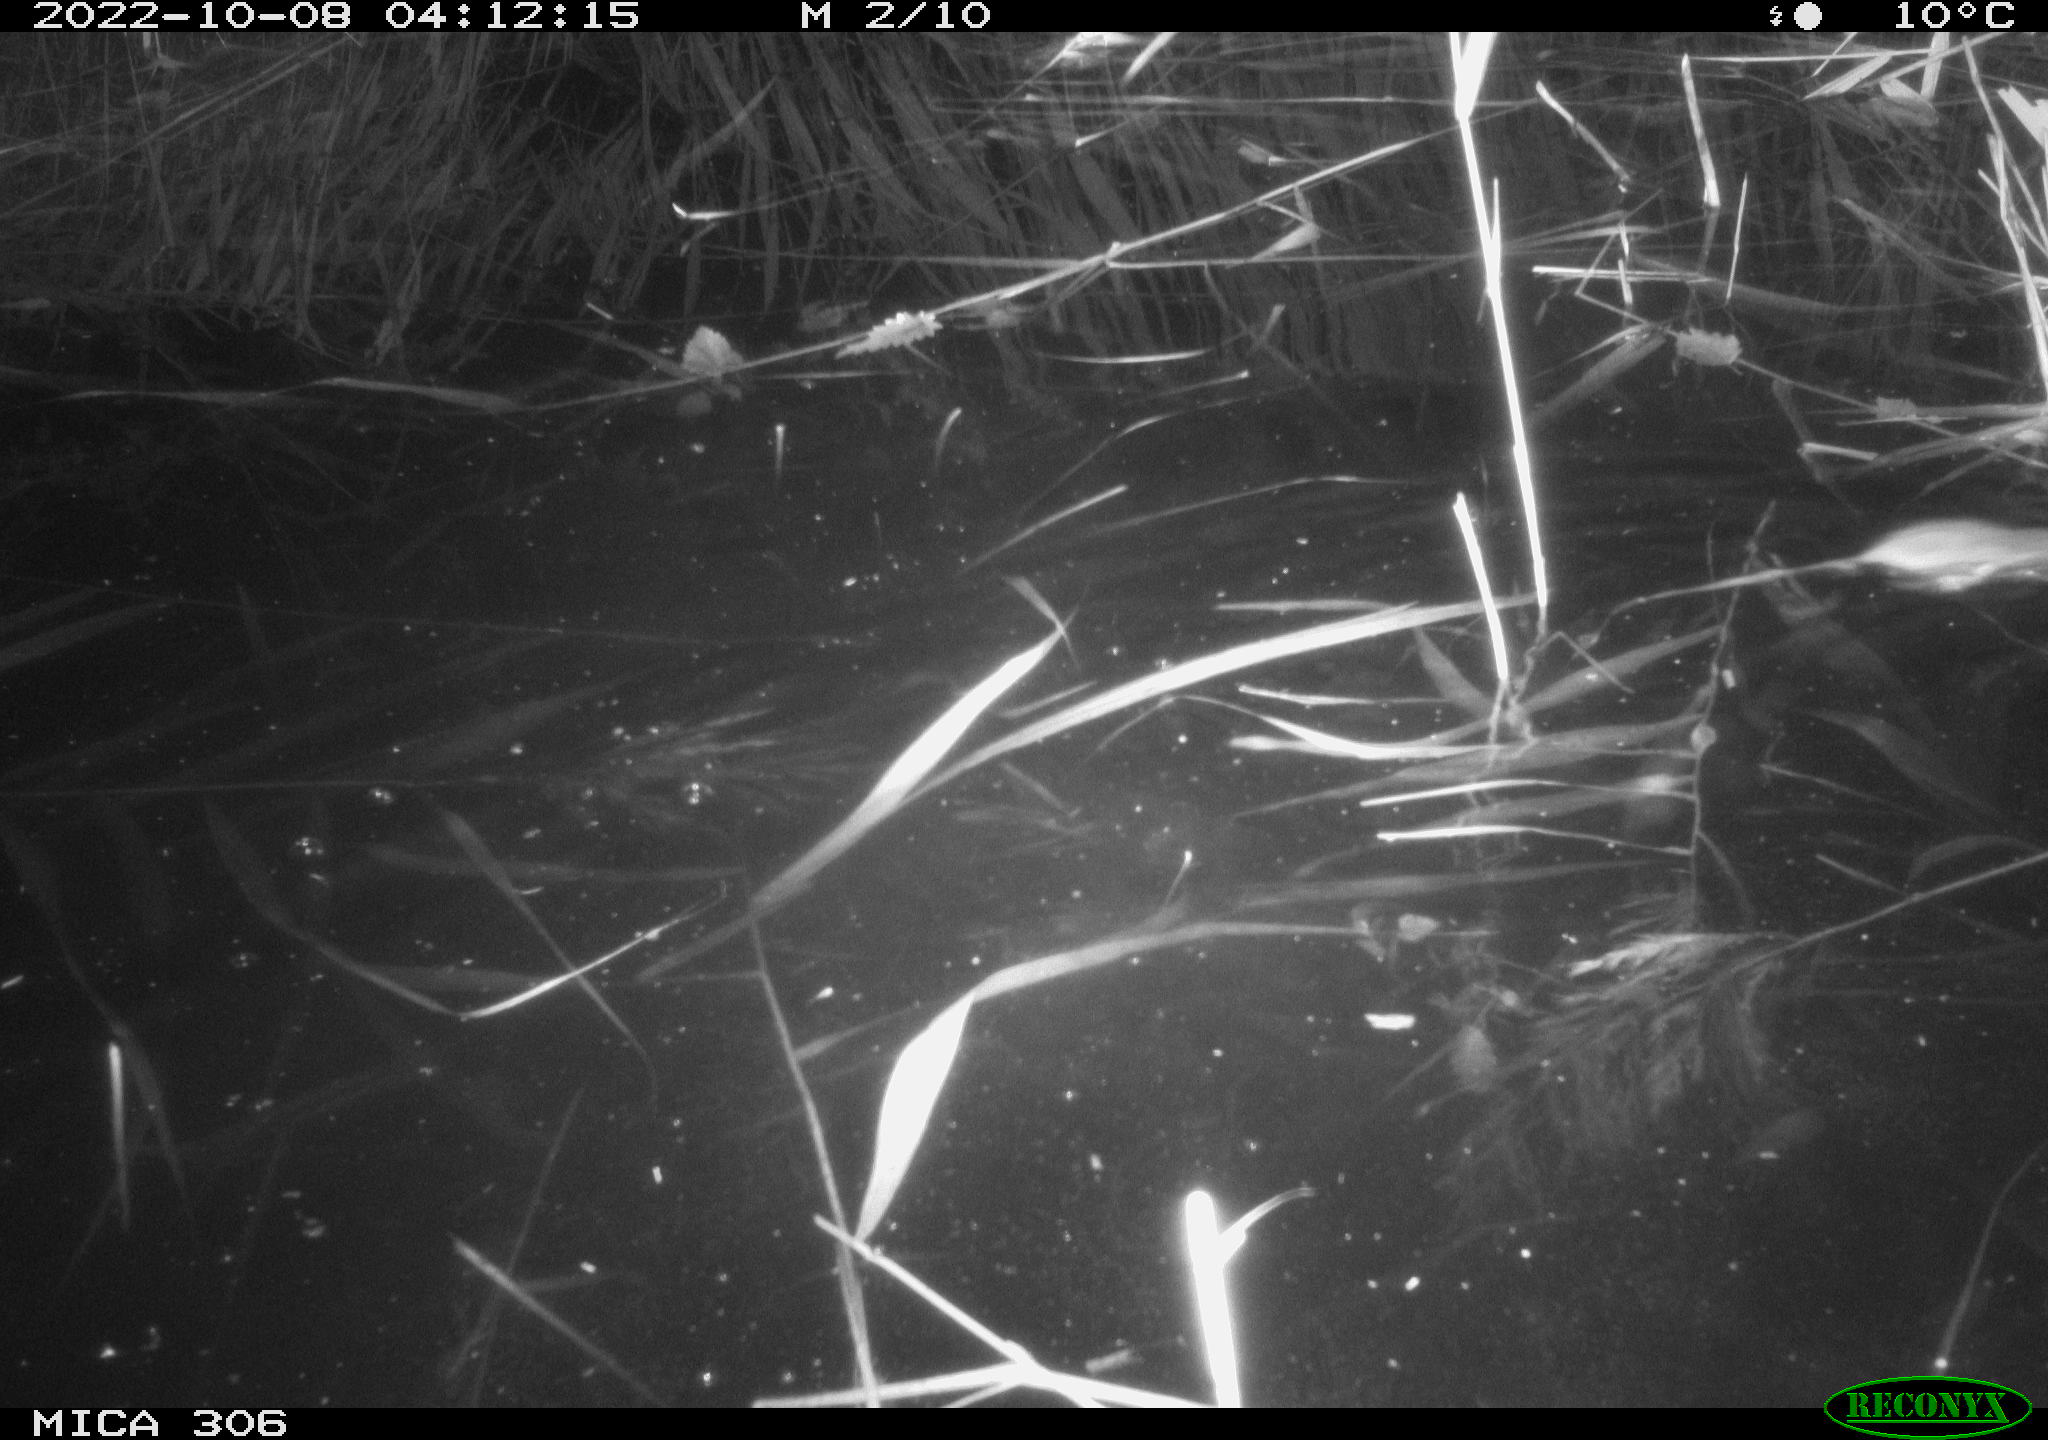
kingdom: Animalia
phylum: Chordata
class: Mammalia
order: Rodentia
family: Muridae
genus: Rattus
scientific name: Rattus norvegicus
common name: Brown rat
